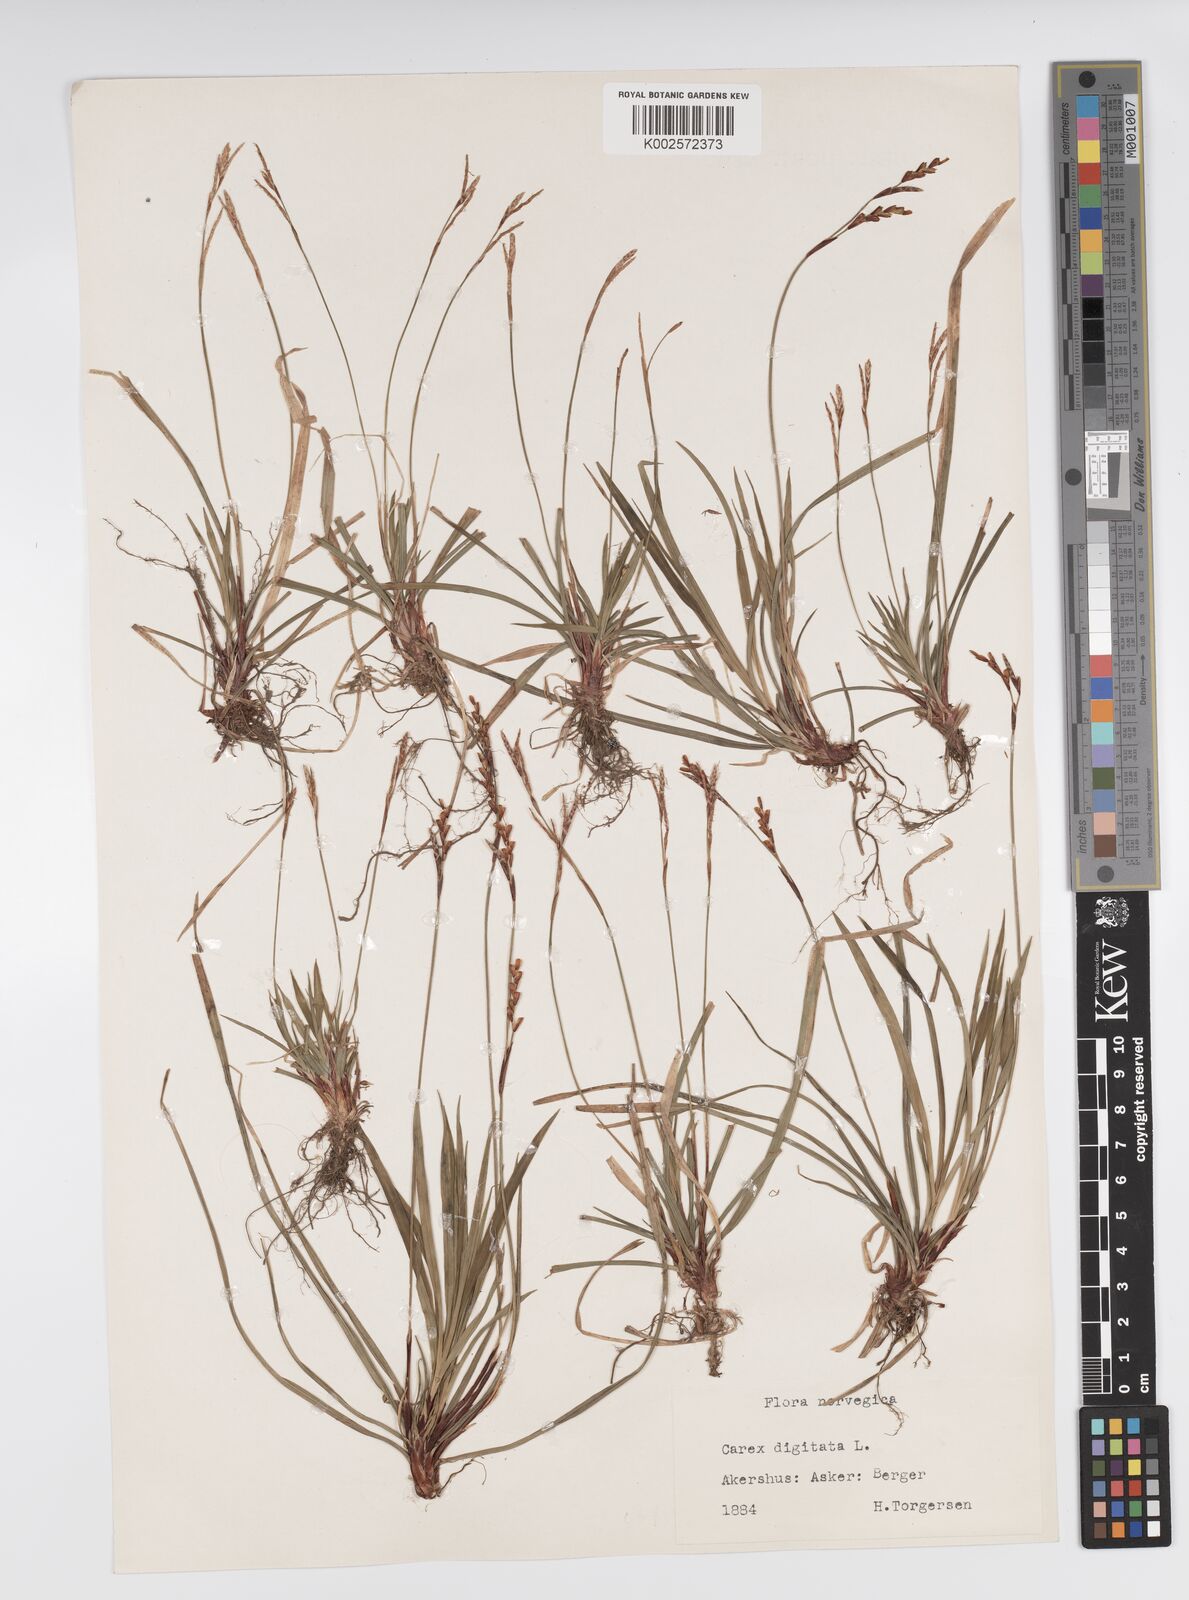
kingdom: Plantae
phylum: Tracheophyta
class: Liliopsida
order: Poales
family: Cyperaceae
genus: Carex
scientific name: Carex digitata
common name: Fingered sedge
